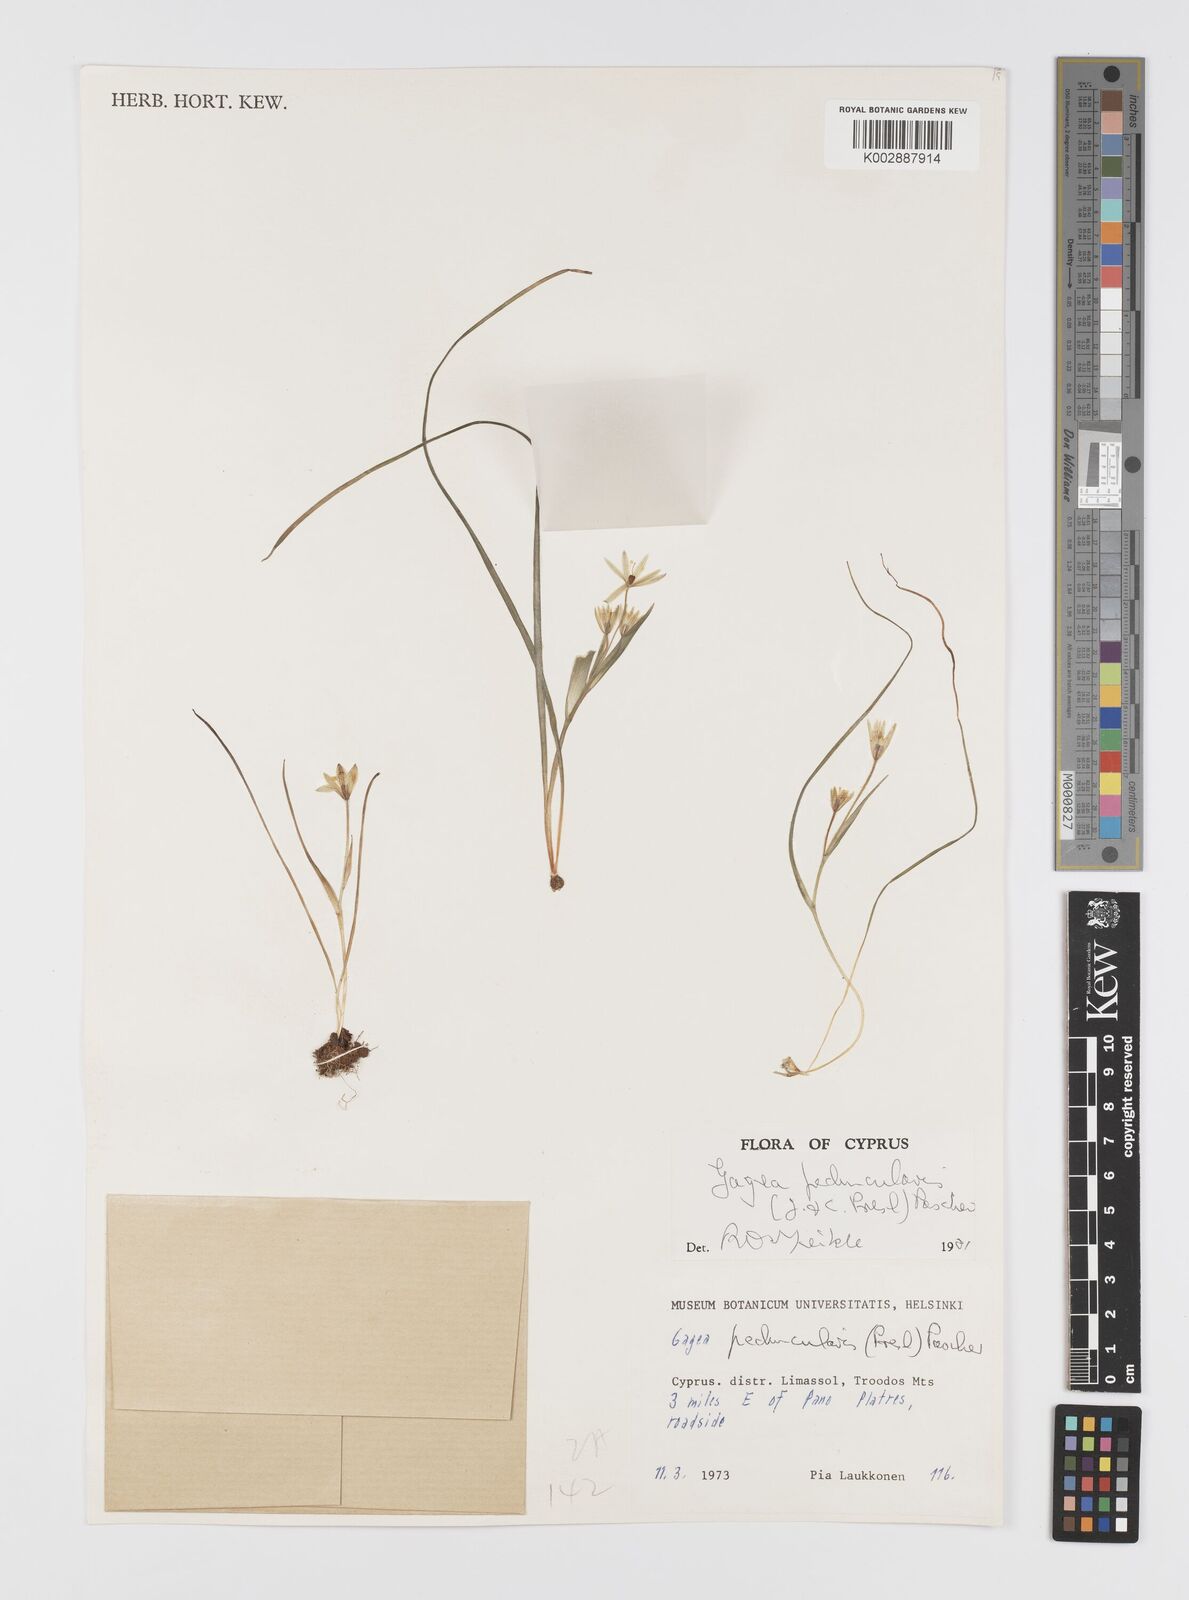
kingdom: Plantae
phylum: Tracheophyta
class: Liliopsida
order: Liliales
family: Liliaceae
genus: Gagea
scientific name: Gagea peduncularis
